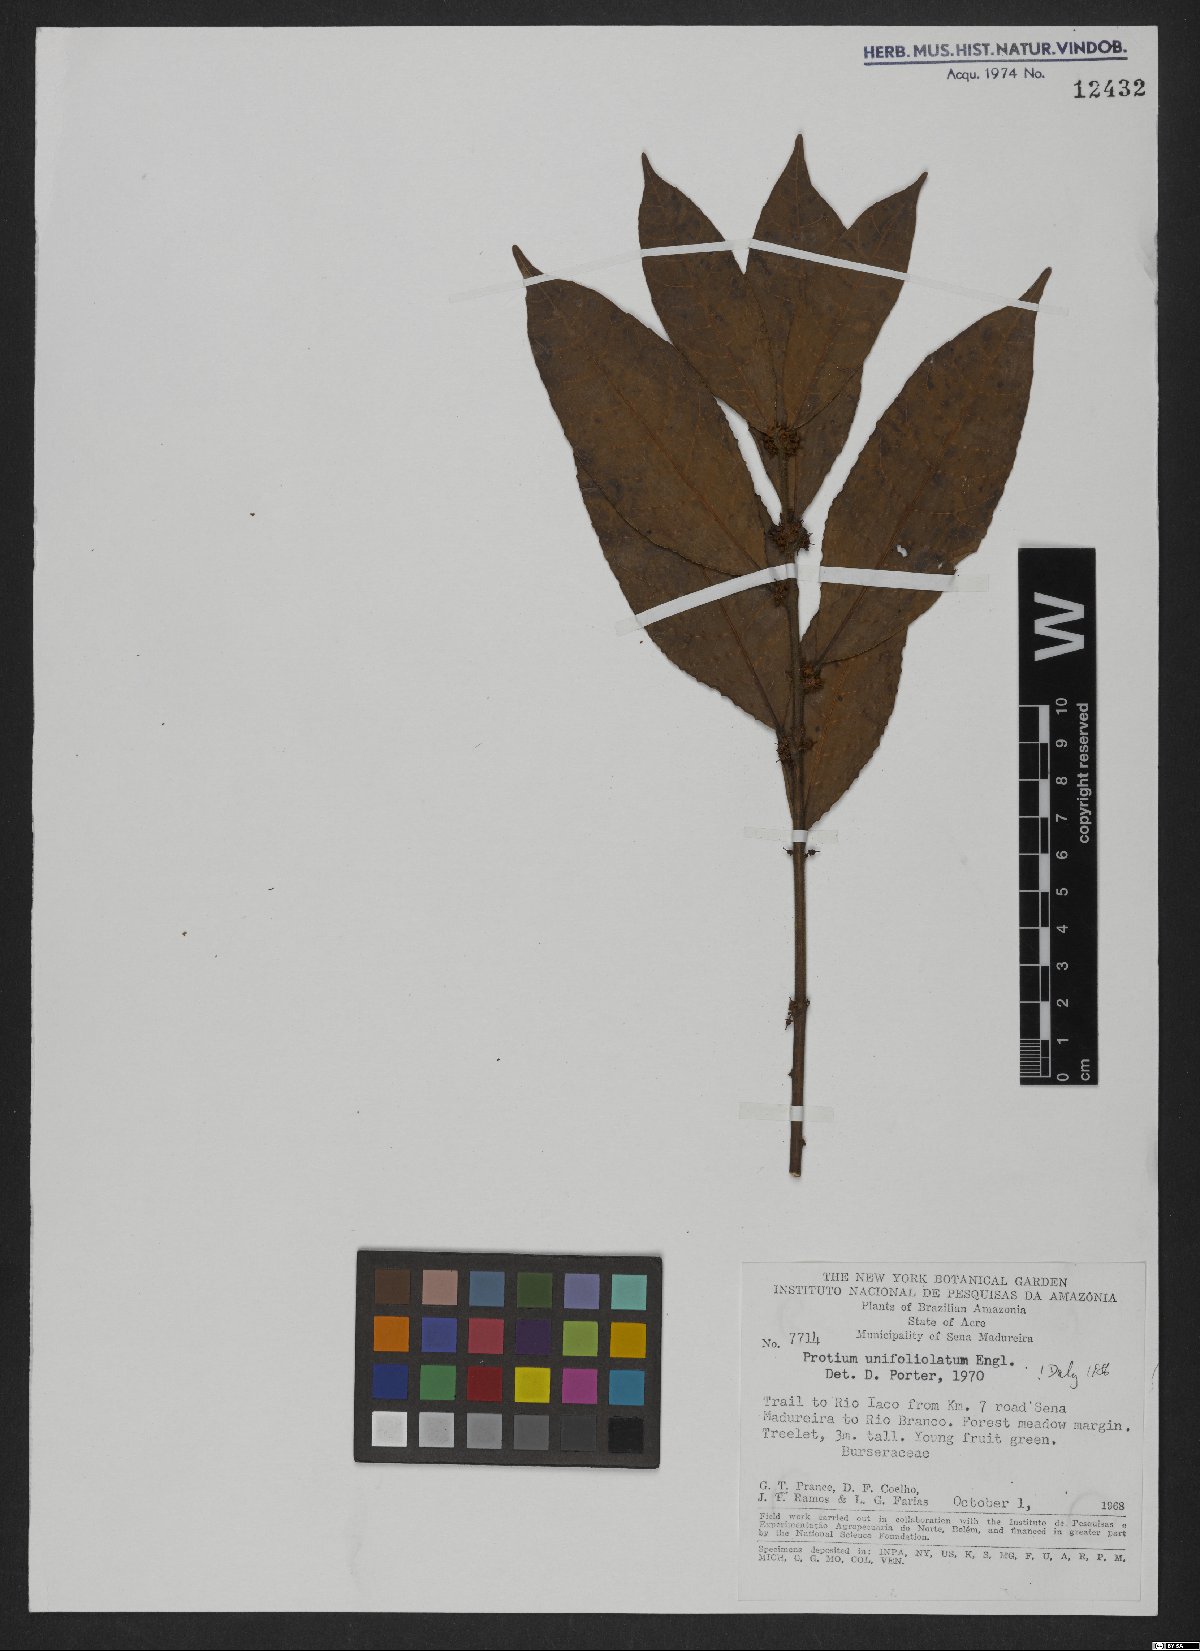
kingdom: Plantae
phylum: Tracheophyta
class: Magnoliopsida
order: Sapindales
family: Burseraceae
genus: Protium
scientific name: Protium unifoliolatum
